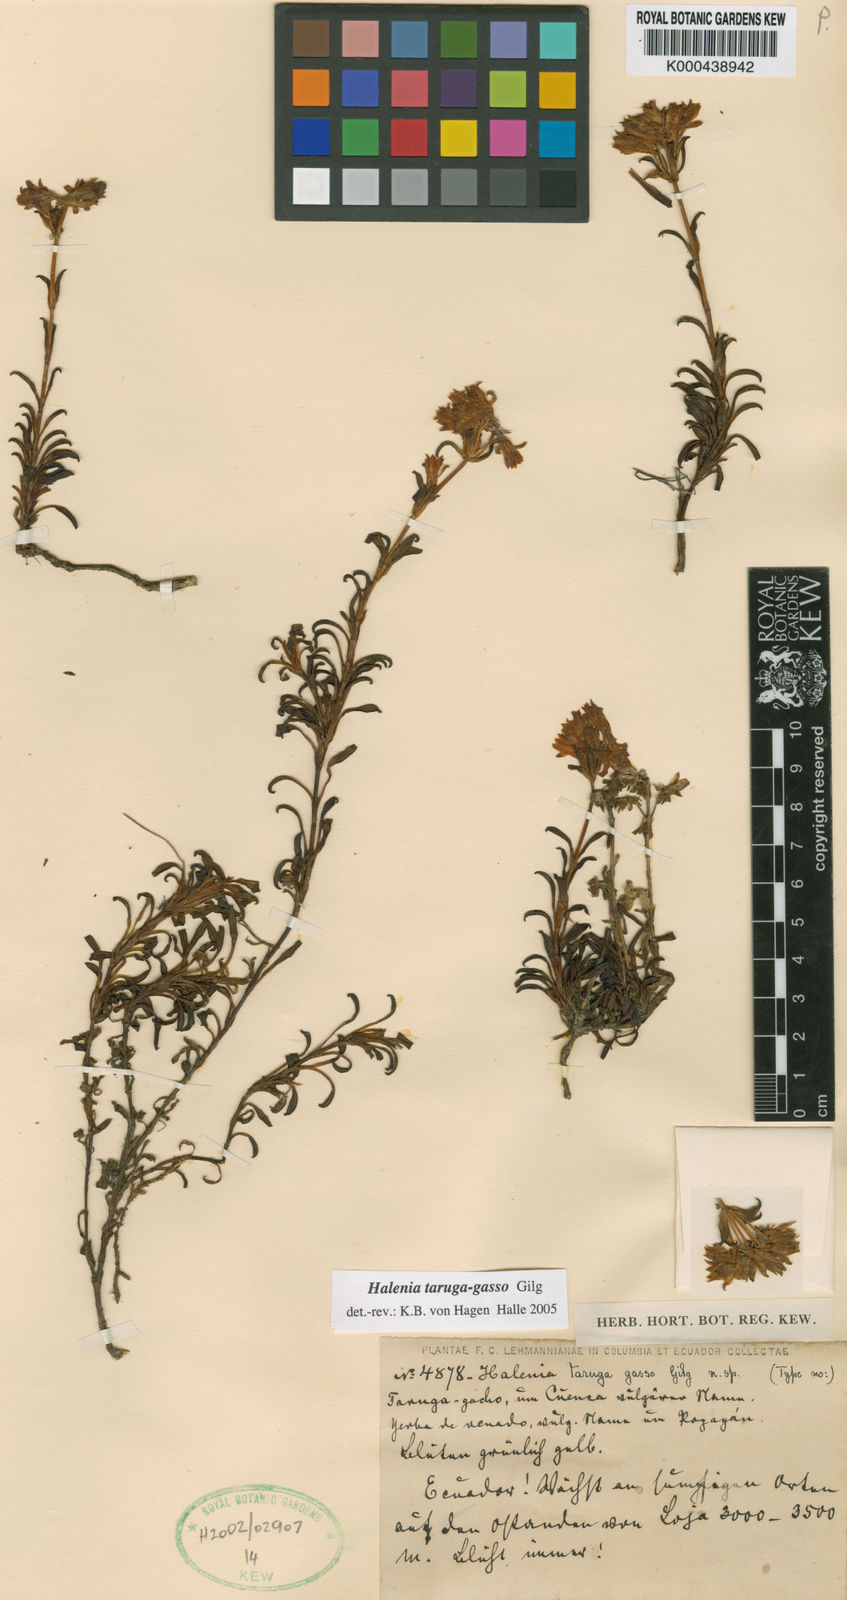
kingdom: Plantae
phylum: Tracheophyta
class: Magnoliopsida
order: Gentianales
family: Gentianaceae
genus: Halenia
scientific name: Halenia taruga-gasso
